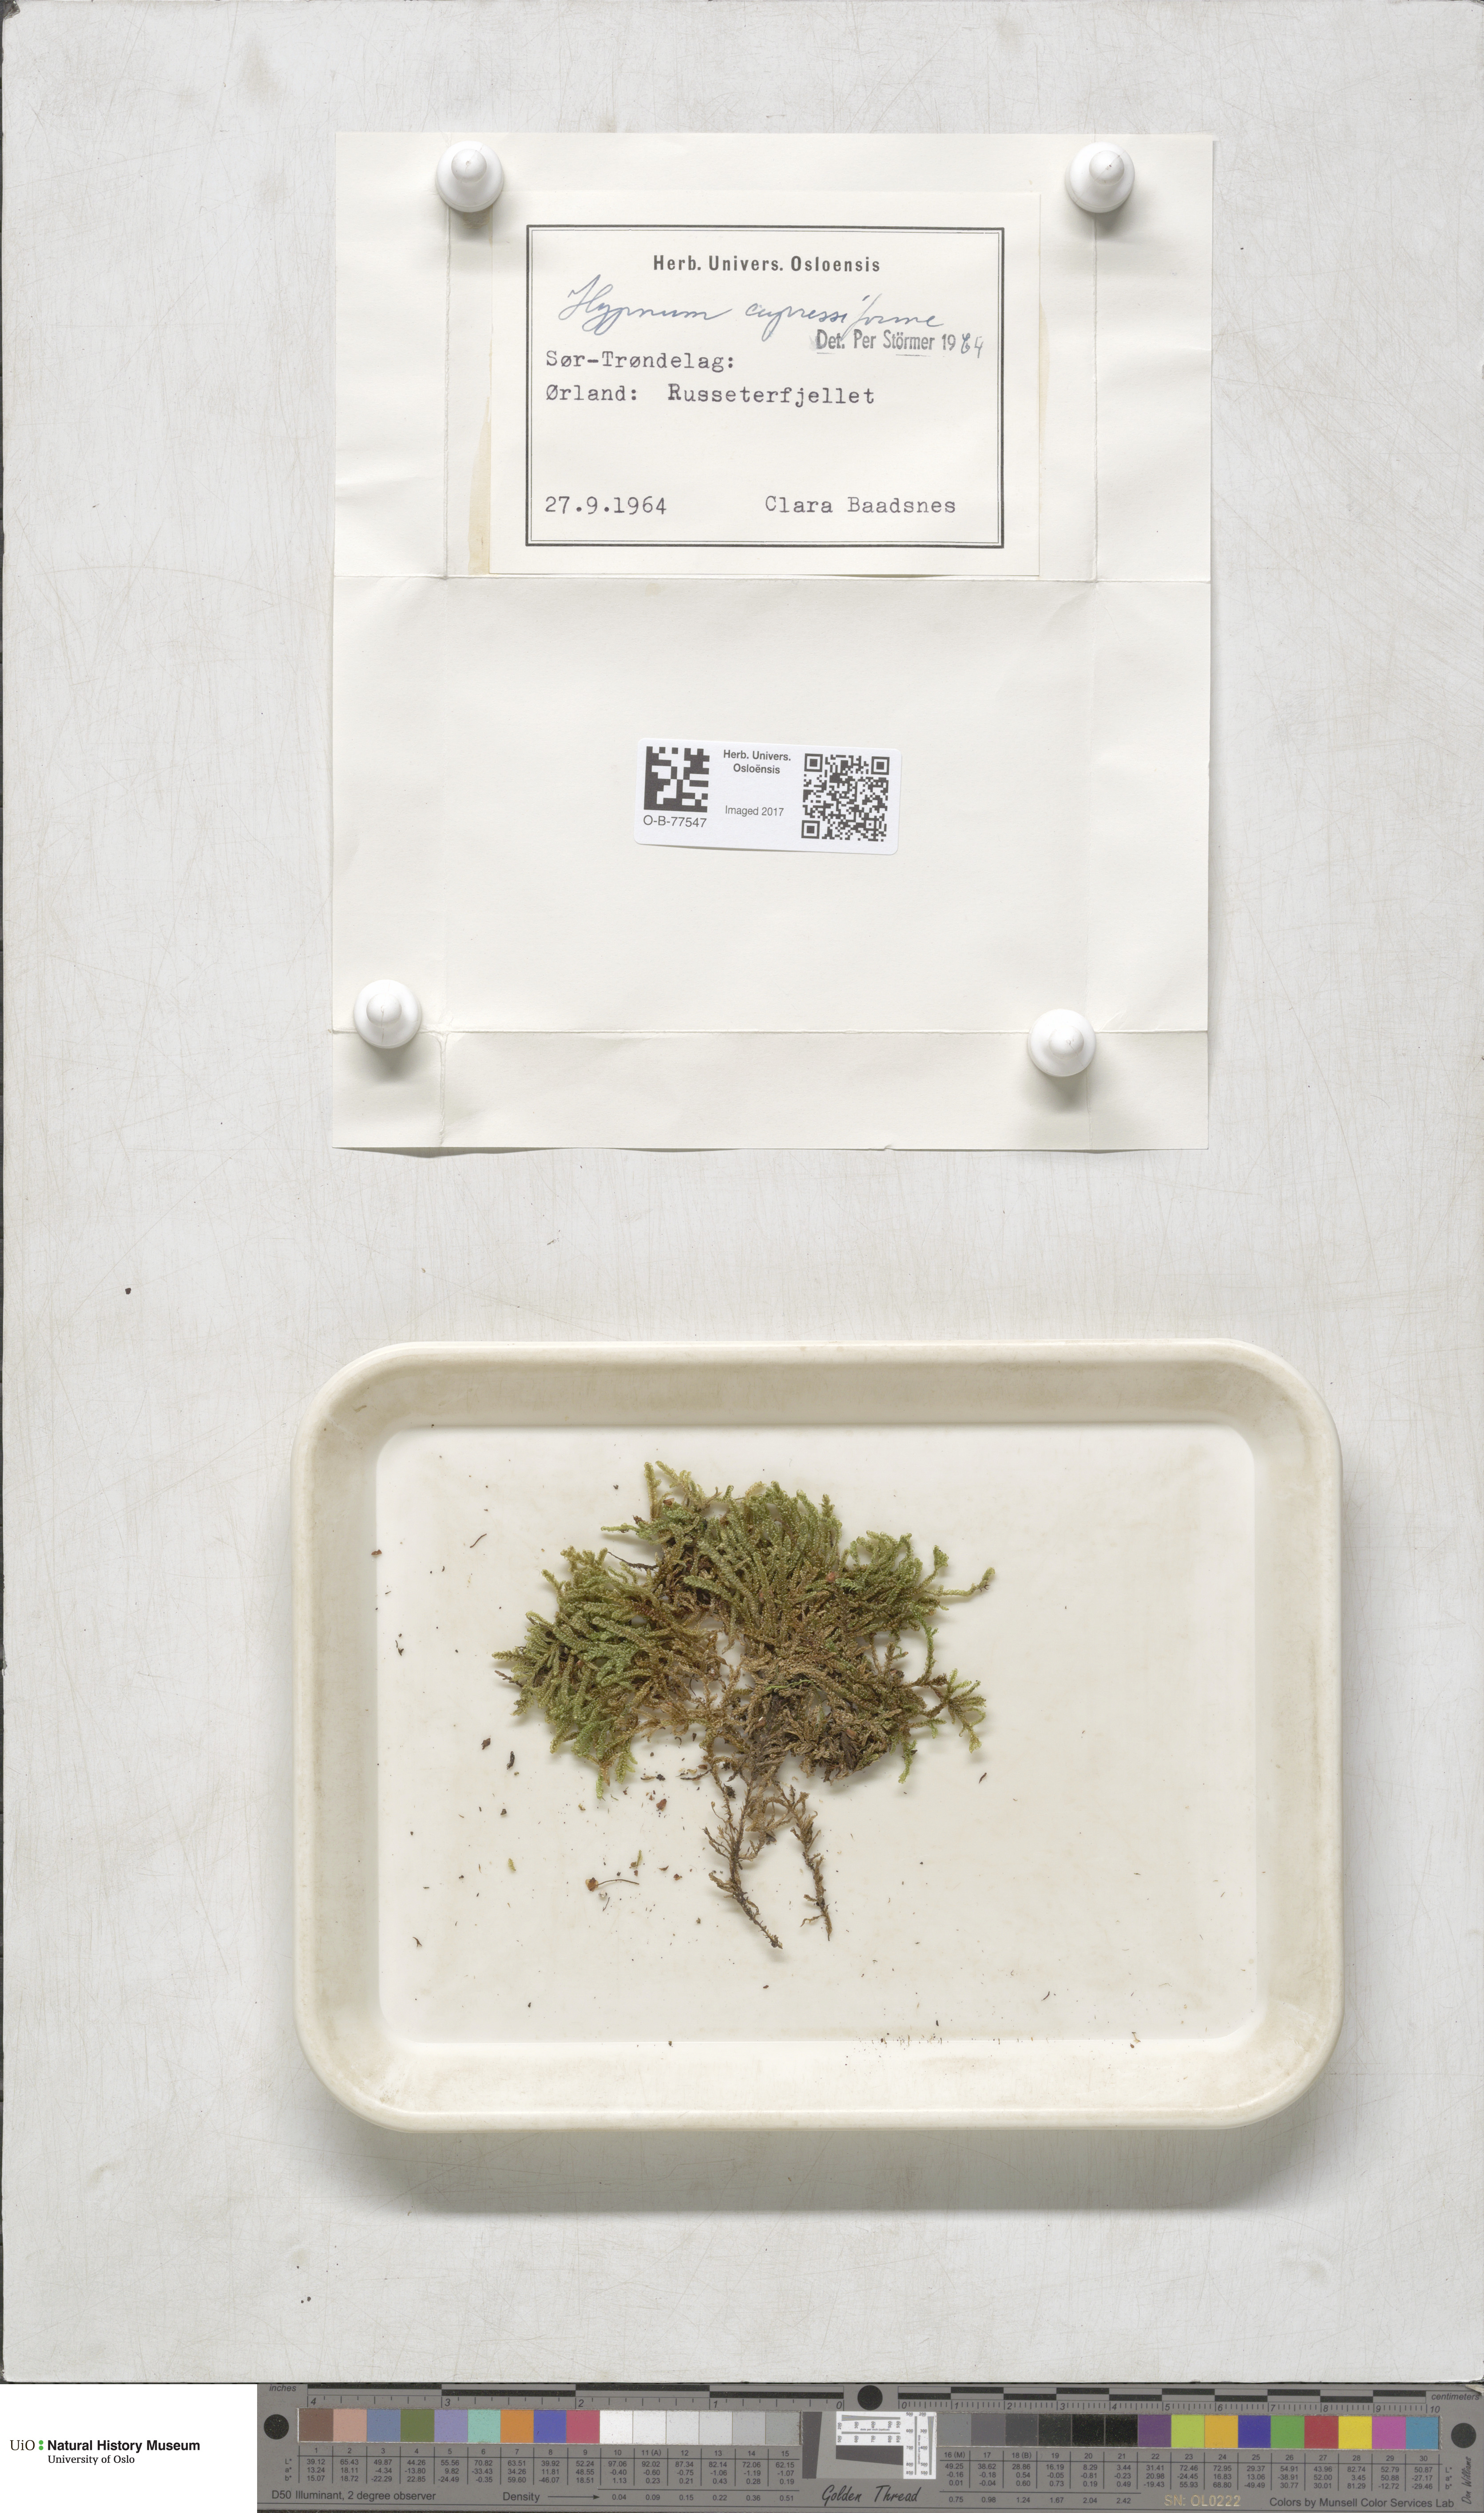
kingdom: Plantae
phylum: Bryophyta
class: Bryopsida
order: Hypnales
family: Hypnaceae
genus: Hypnum
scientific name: Hypnum cupressiforme
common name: Cypress-leaved plait-moss
